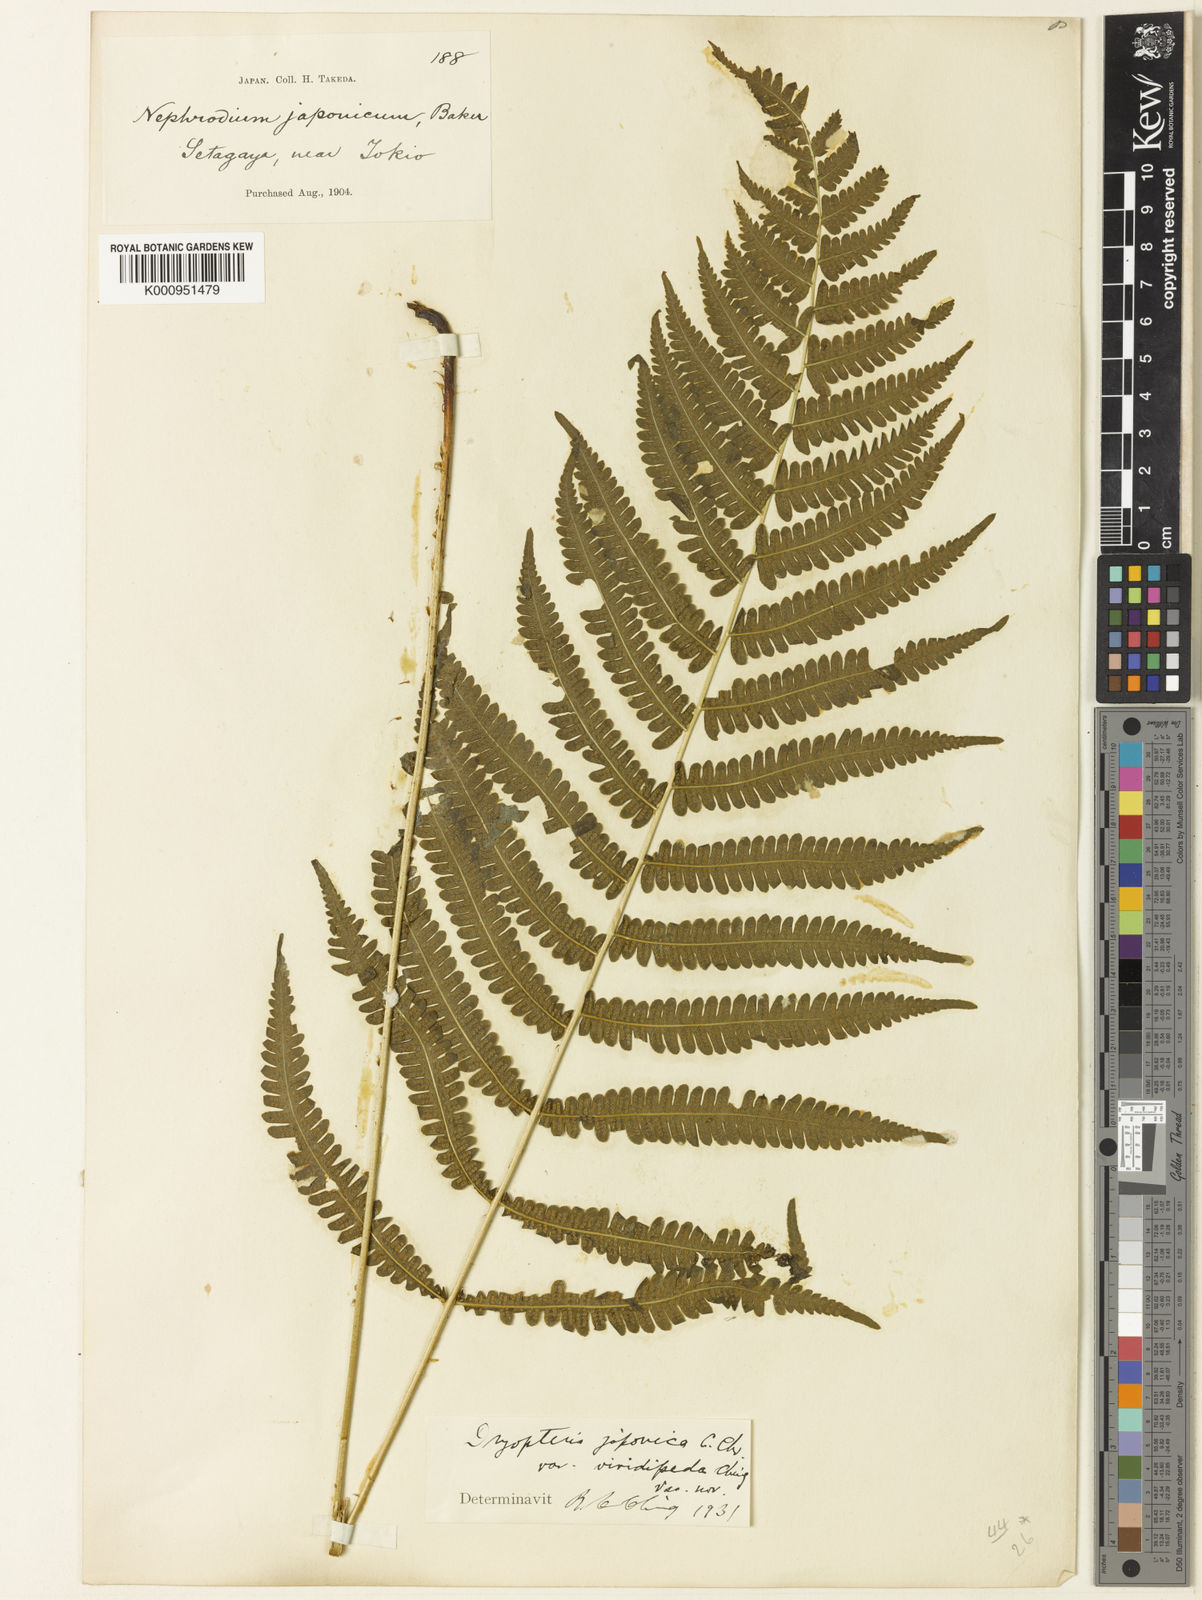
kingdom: Plantae
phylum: Tracheophyta
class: Polypodiopsida
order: Polypodiales
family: Thelypteridaceae
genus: Coryphopteris
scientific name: Coryphopteris japonica
